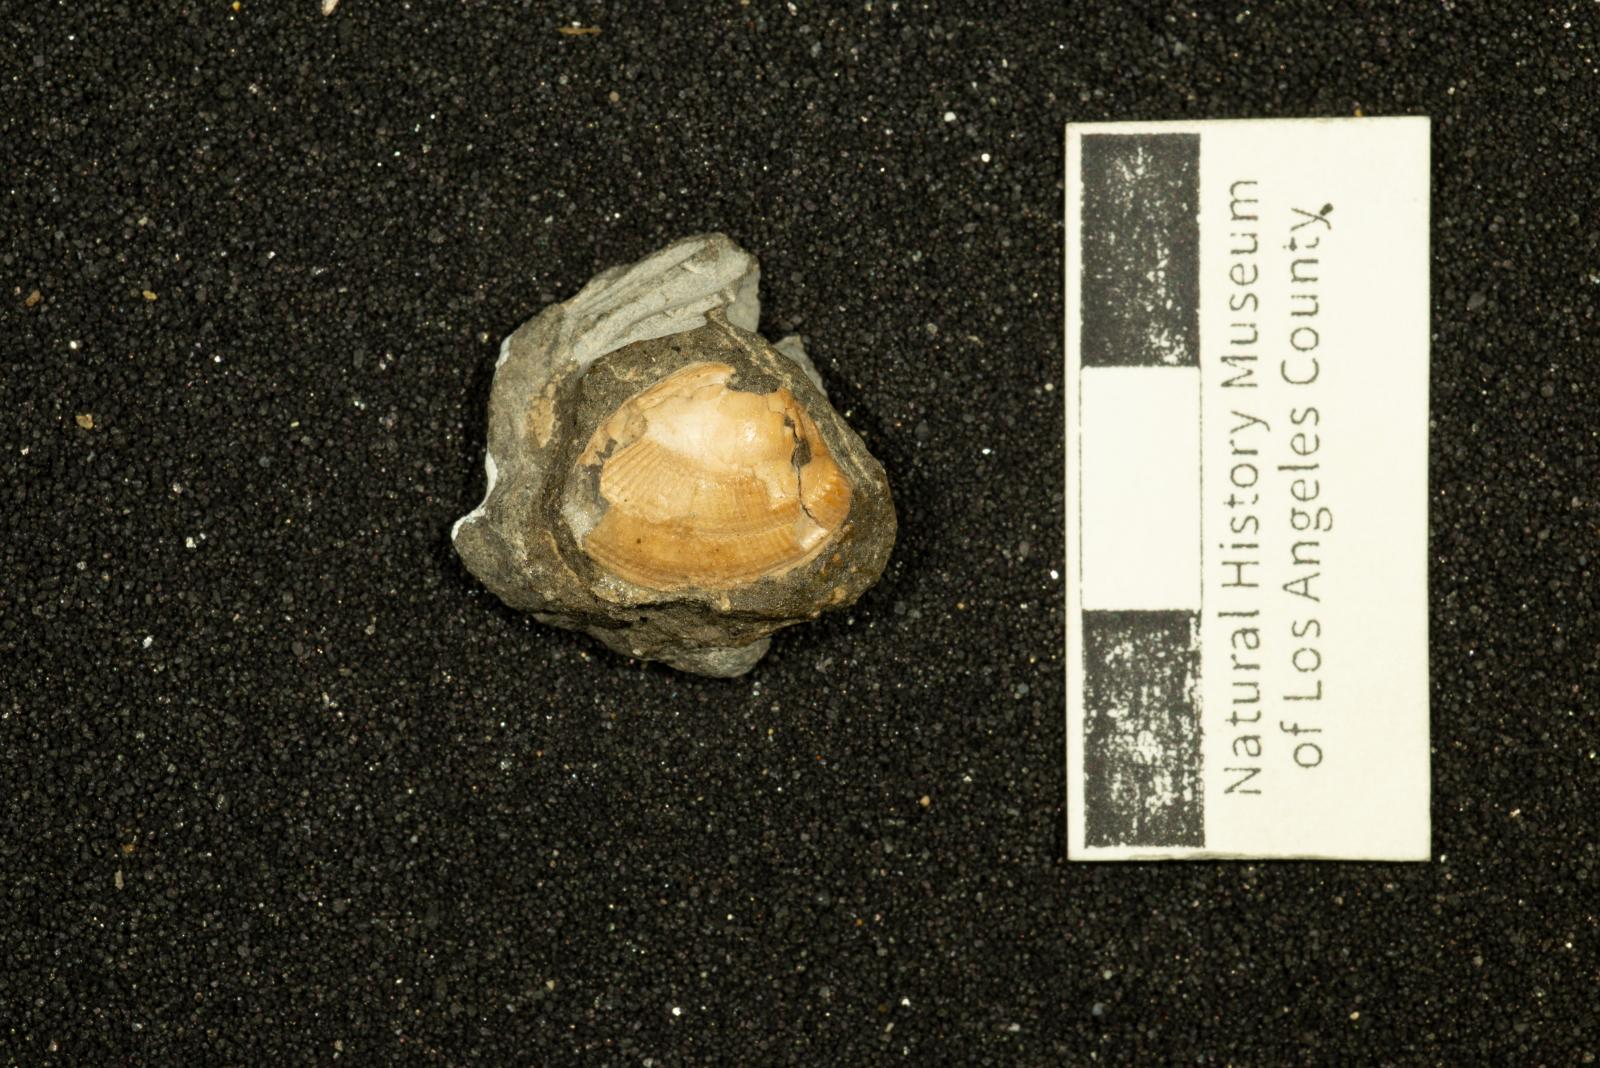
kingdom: Animalia
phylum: Mollusca
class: Bivalvia
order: Nuculida
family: Nuculidae
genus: Acila
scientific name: Acila demessa
